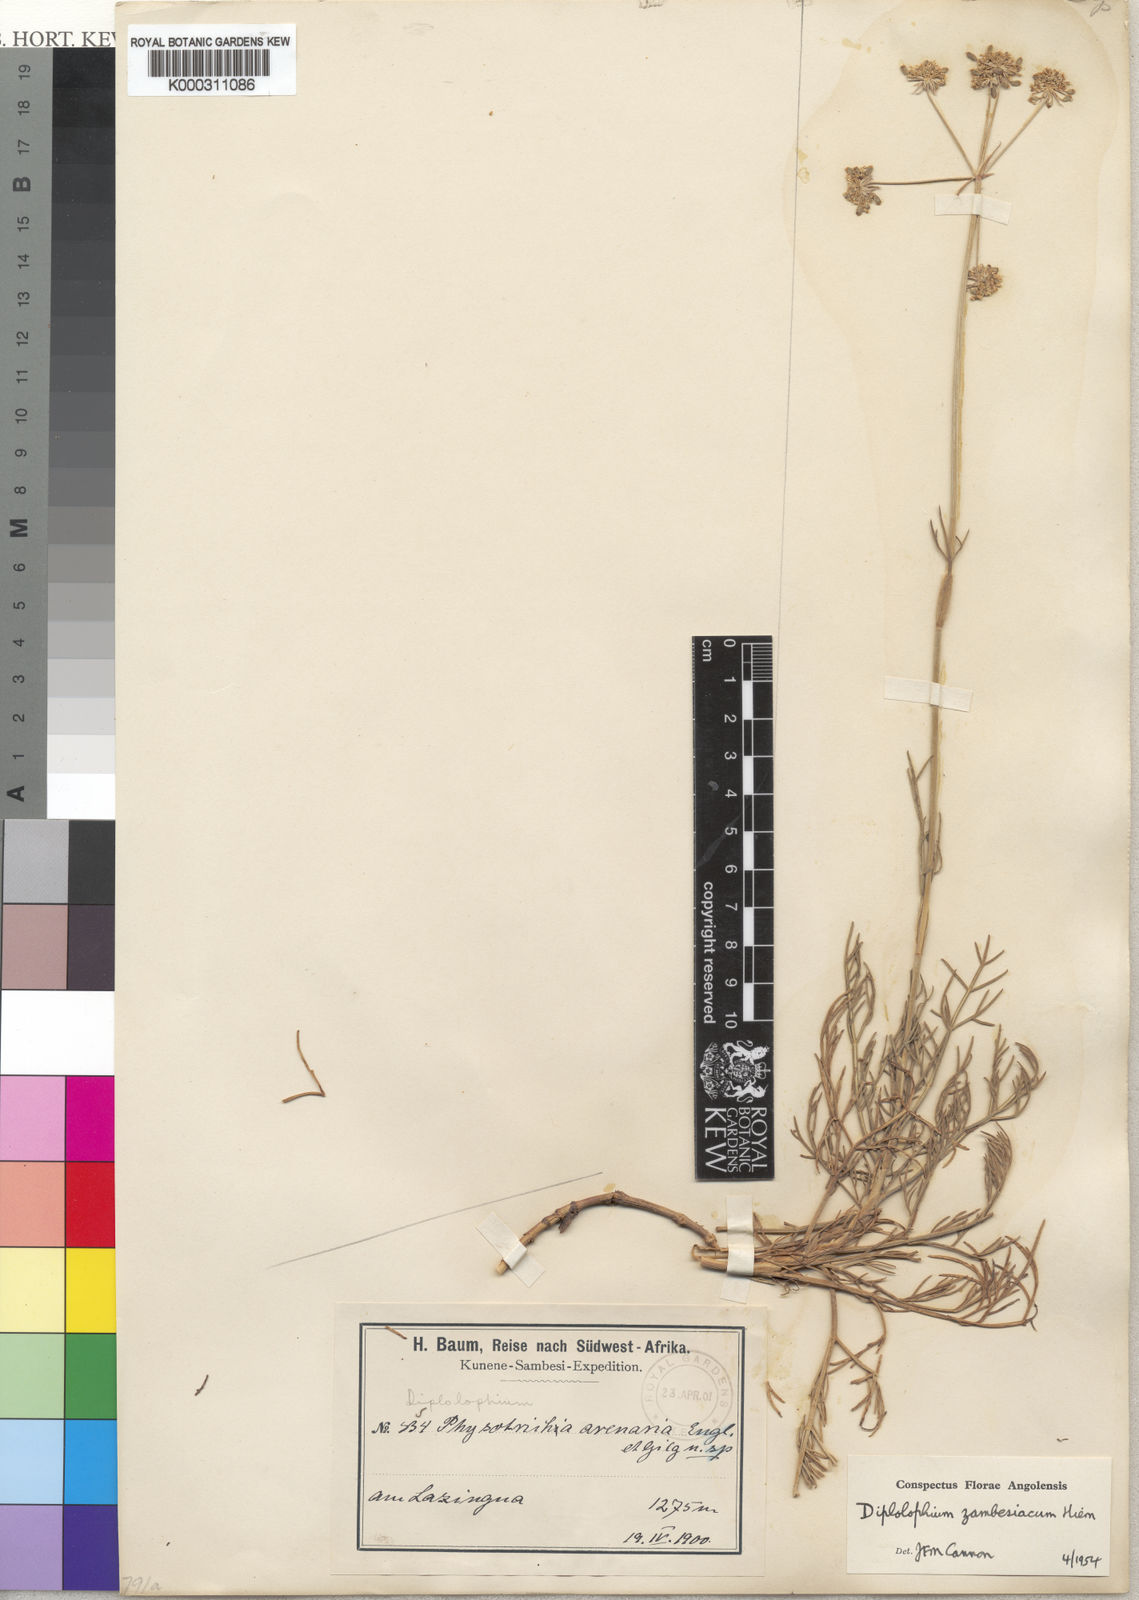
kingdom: Plantae
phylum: Tracheophyta
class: Magnoliopsida
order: Apiales
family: Apiaceae
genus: Diplolophium
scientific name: Diplolophium zambesianum
